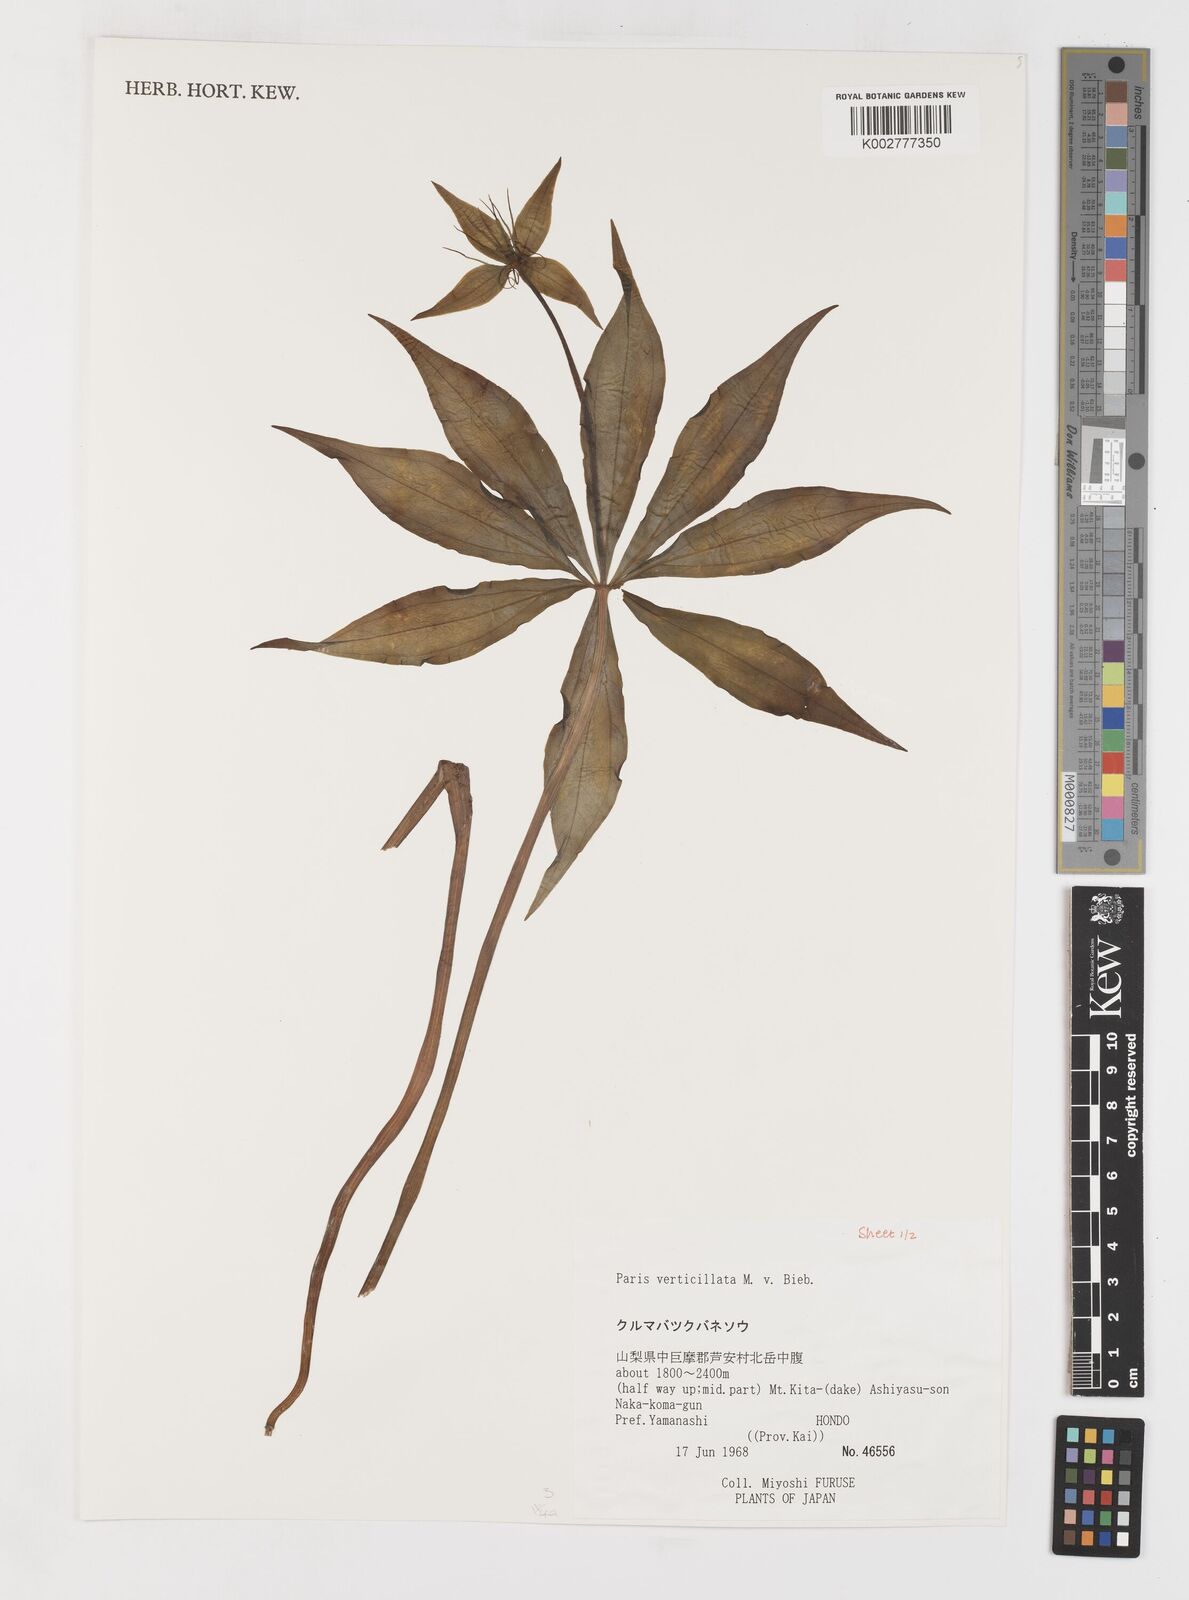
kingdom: Plantae
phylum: Tracheophyta
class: Liliopsida
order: Liliales
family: Melanthiaceae
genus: Paris
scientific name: Paris verticillata
